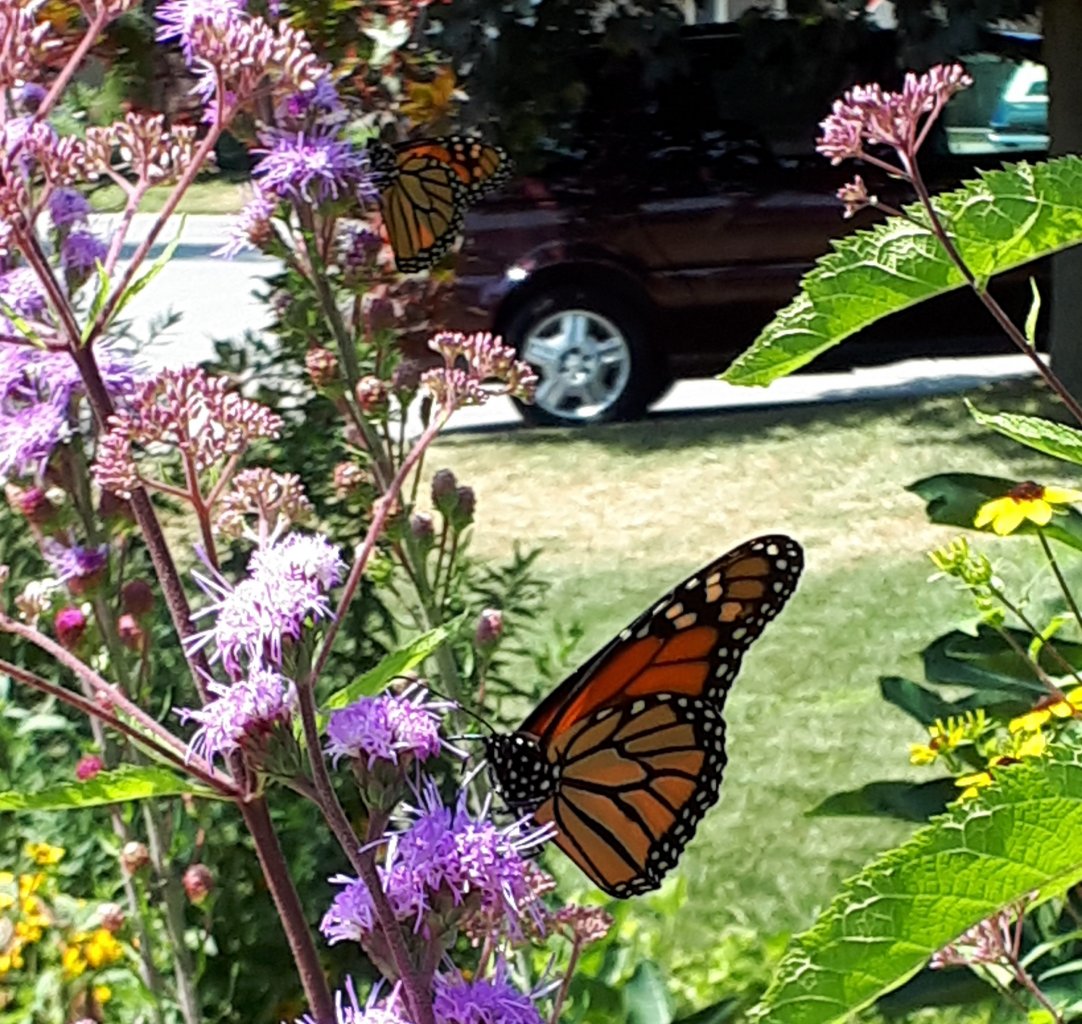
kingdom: Animalia
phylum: Arthropoda
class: Insecta
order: Lepidoptera
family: Nymphalidae
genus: Danaus
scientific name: Danaus plexippus
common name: Monarch
